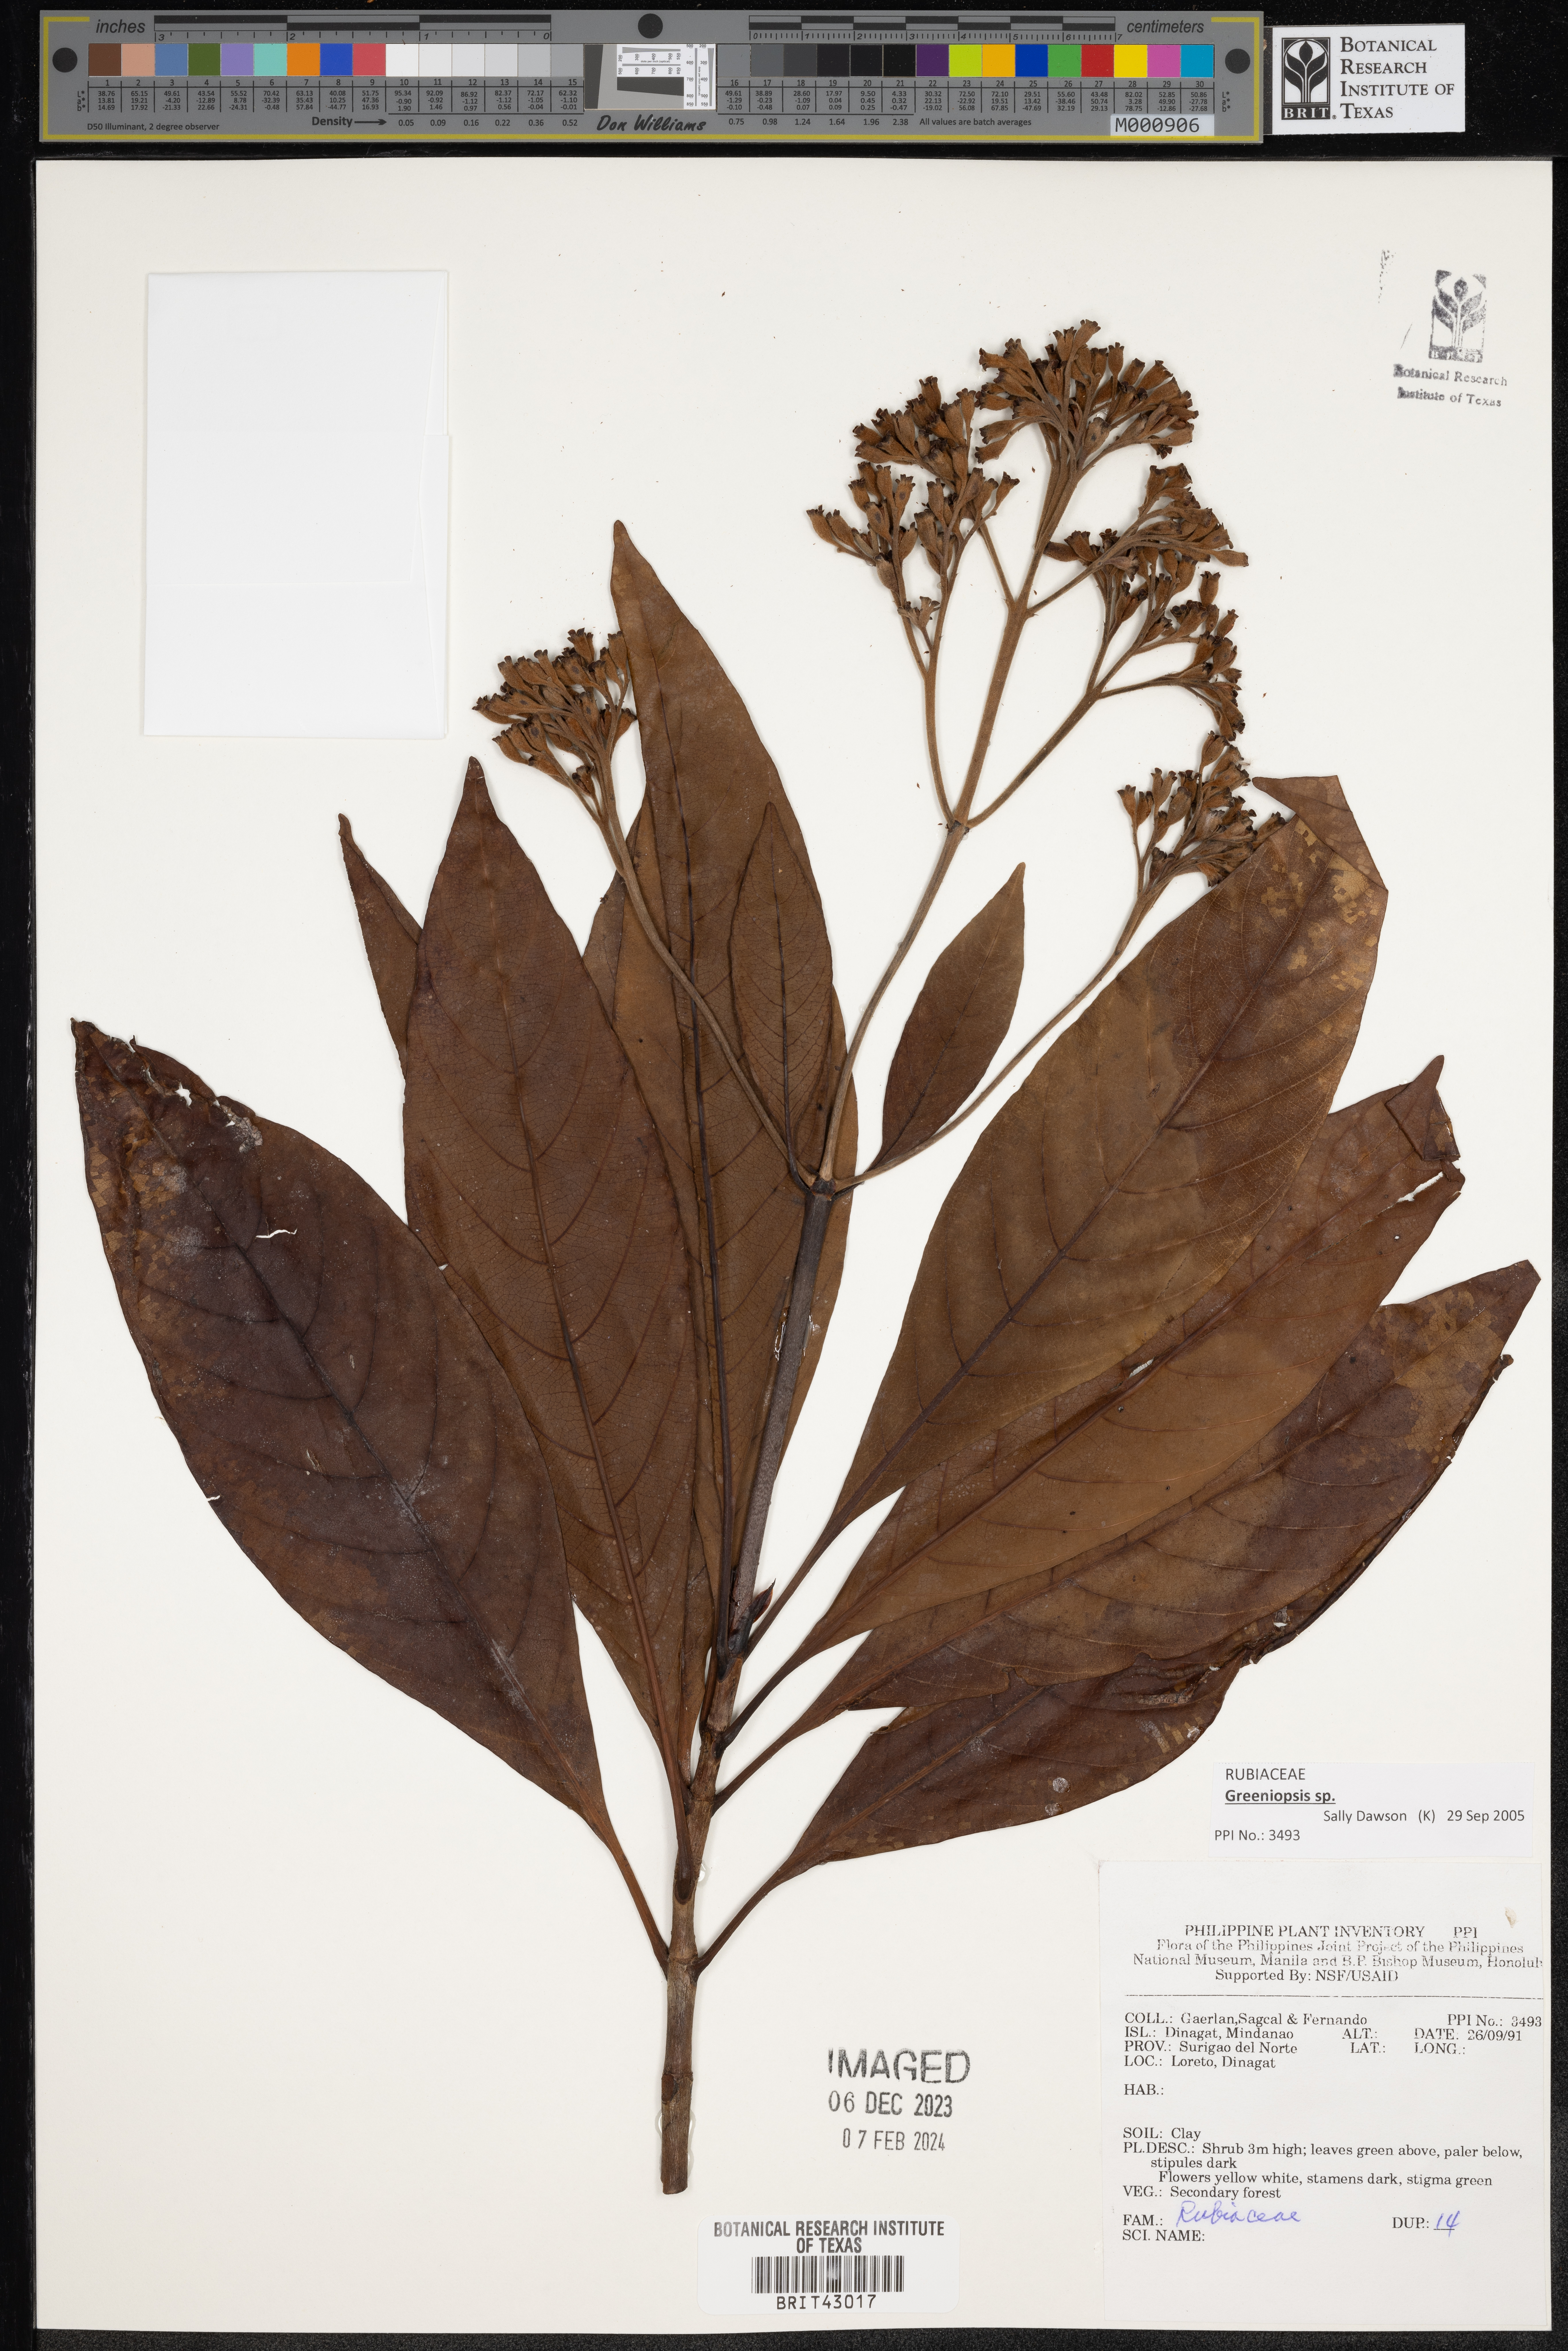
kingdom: Plantae
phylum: Tracheophyta
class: Magnoliopsida
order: Gentianales
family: Rubiaceae
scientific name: Rubiaceae
